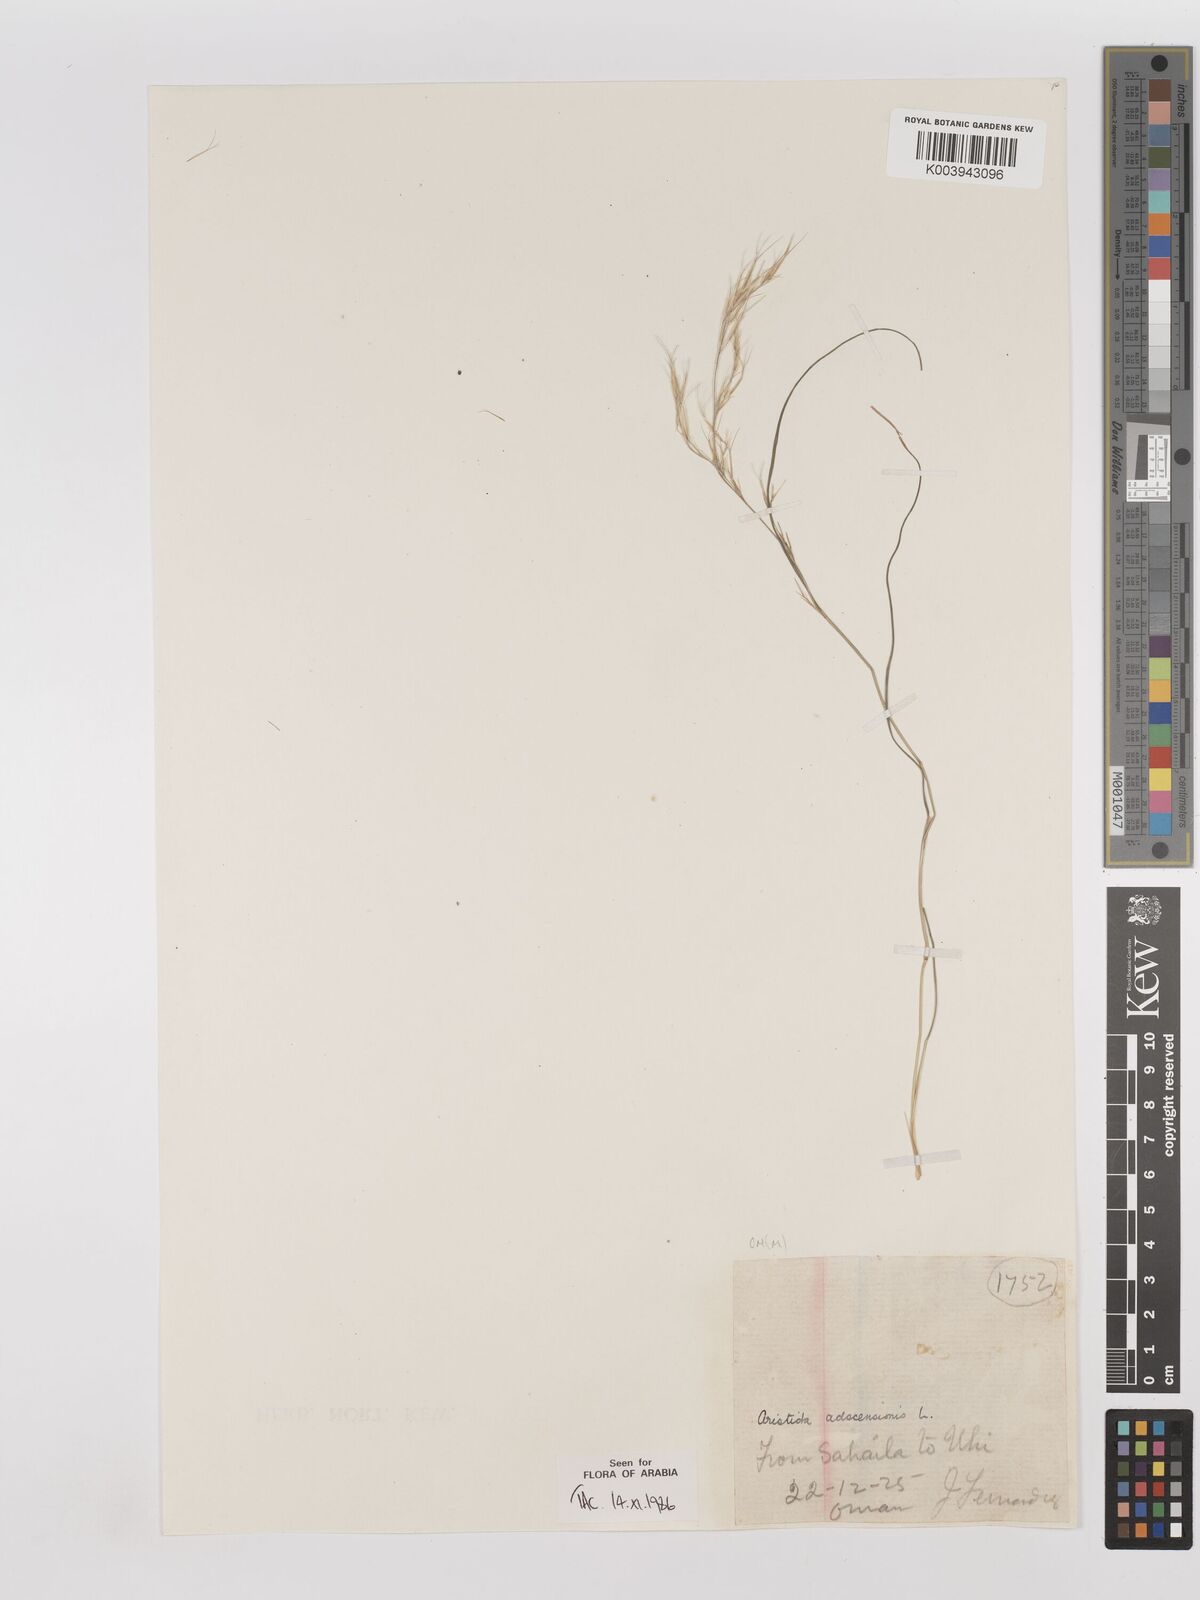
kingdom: Plantae
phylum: Tracheophyta
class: Liliopsida
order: Poales
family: Poaceae
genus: Aristida
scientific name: Aristida adscensionis
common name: Sixweeks threeawn
